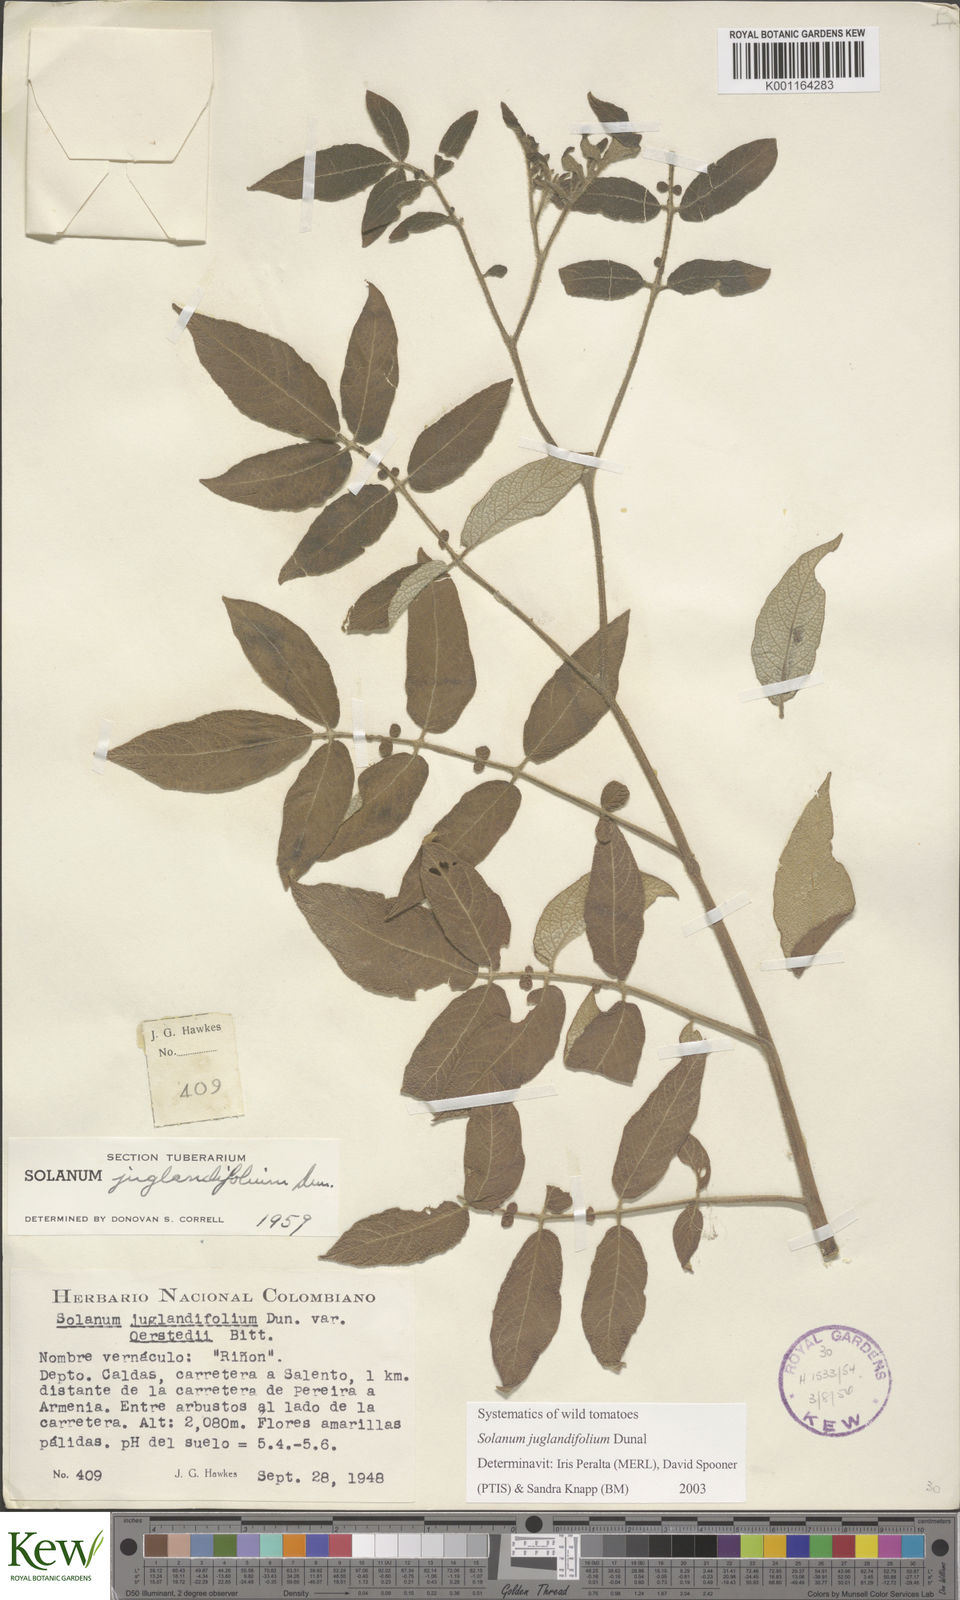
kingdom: Plantae
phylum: Tracheophyta
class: Magnoliopsida
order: Solanales
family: Solanaceae
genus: Solanum
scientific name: Solanum juglandifolium
